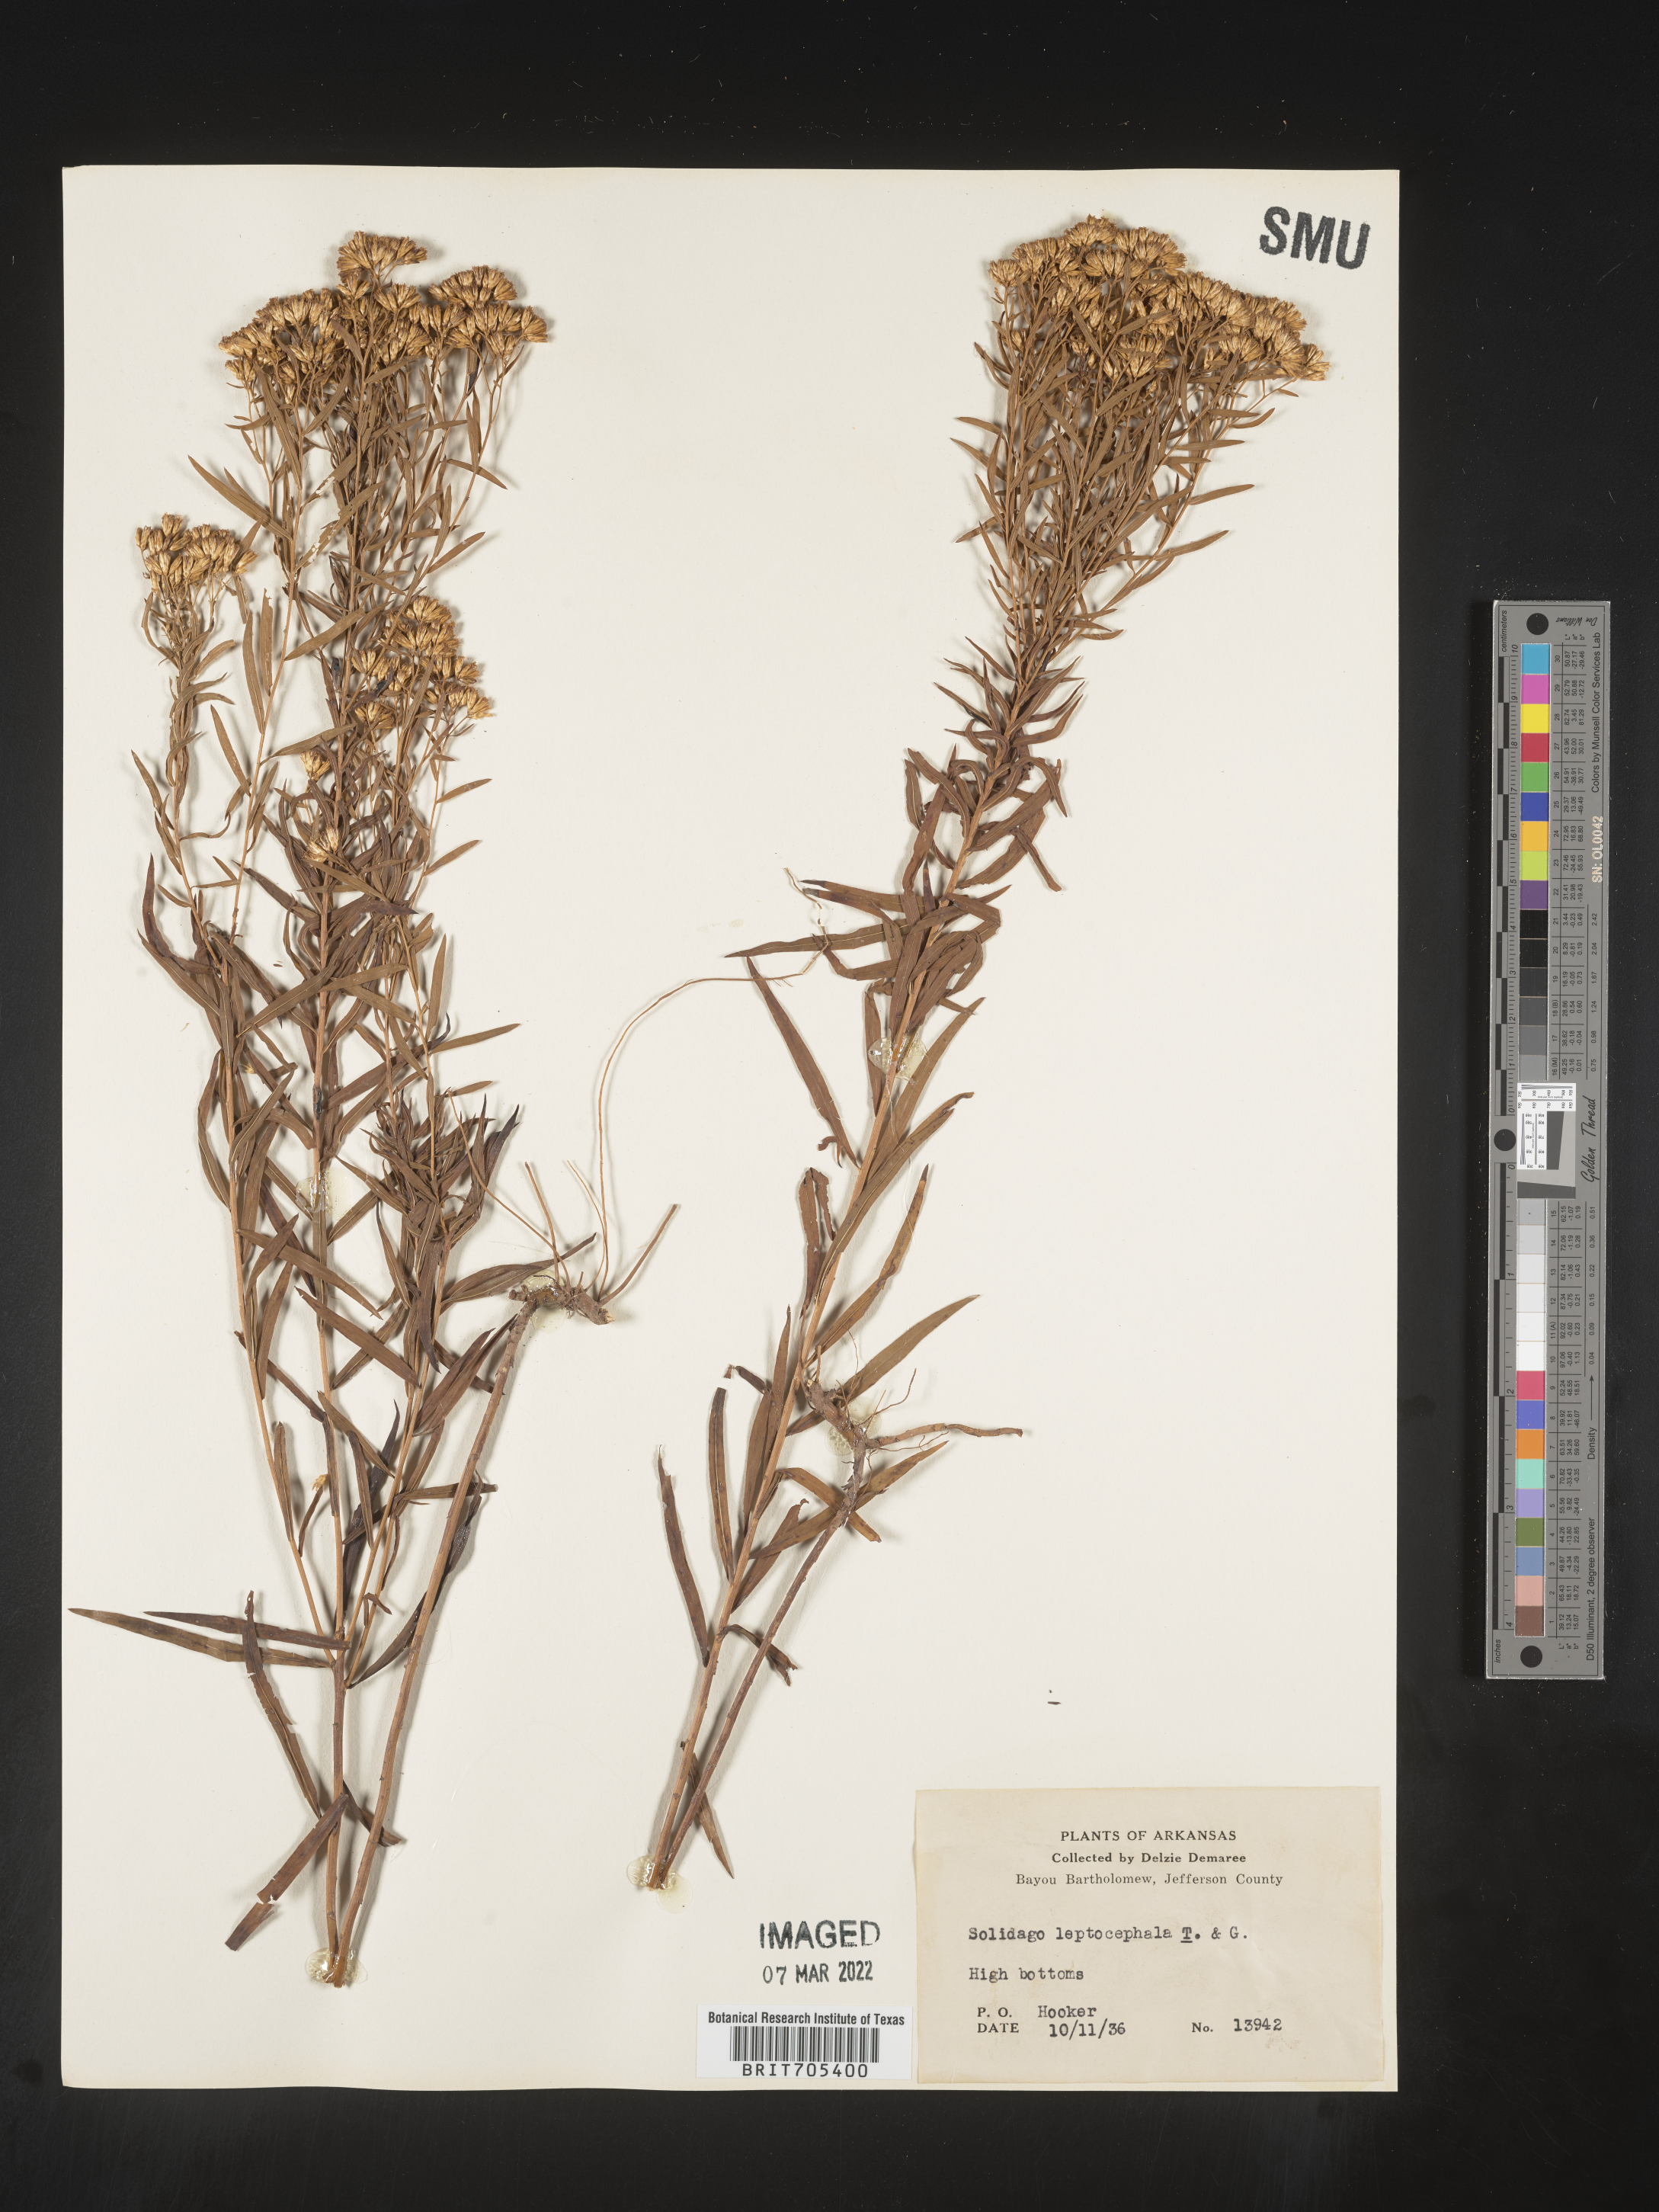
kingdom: Plantae
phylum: Tracheophyta
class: Magnoliopsida
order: Asterales
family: Asteraceae
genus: Euthamia
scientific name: Euthamia leptocephala
